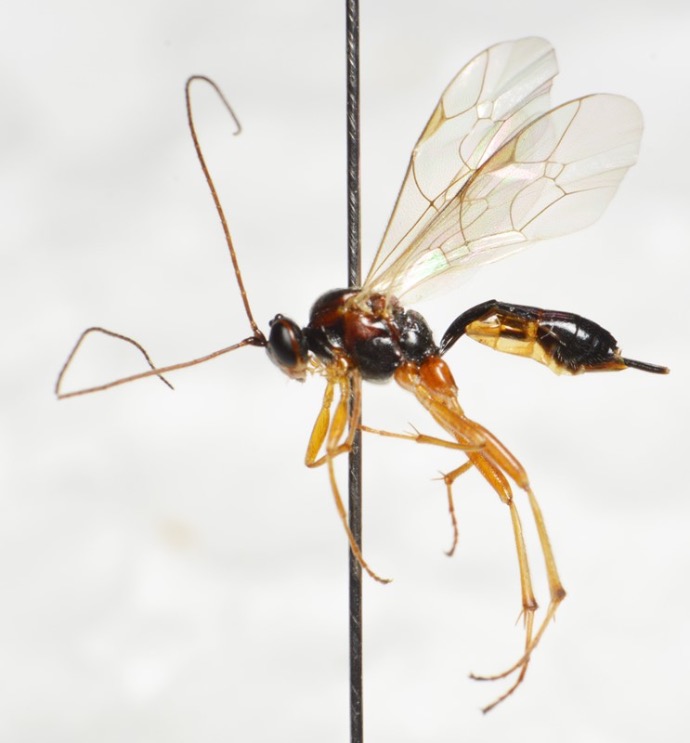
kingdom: Animalia
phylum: Arthropoda
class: Insecta
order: Hymenoptera
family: Ichneumonidae
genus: Mesochorus
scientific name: Mesochorus giberius
